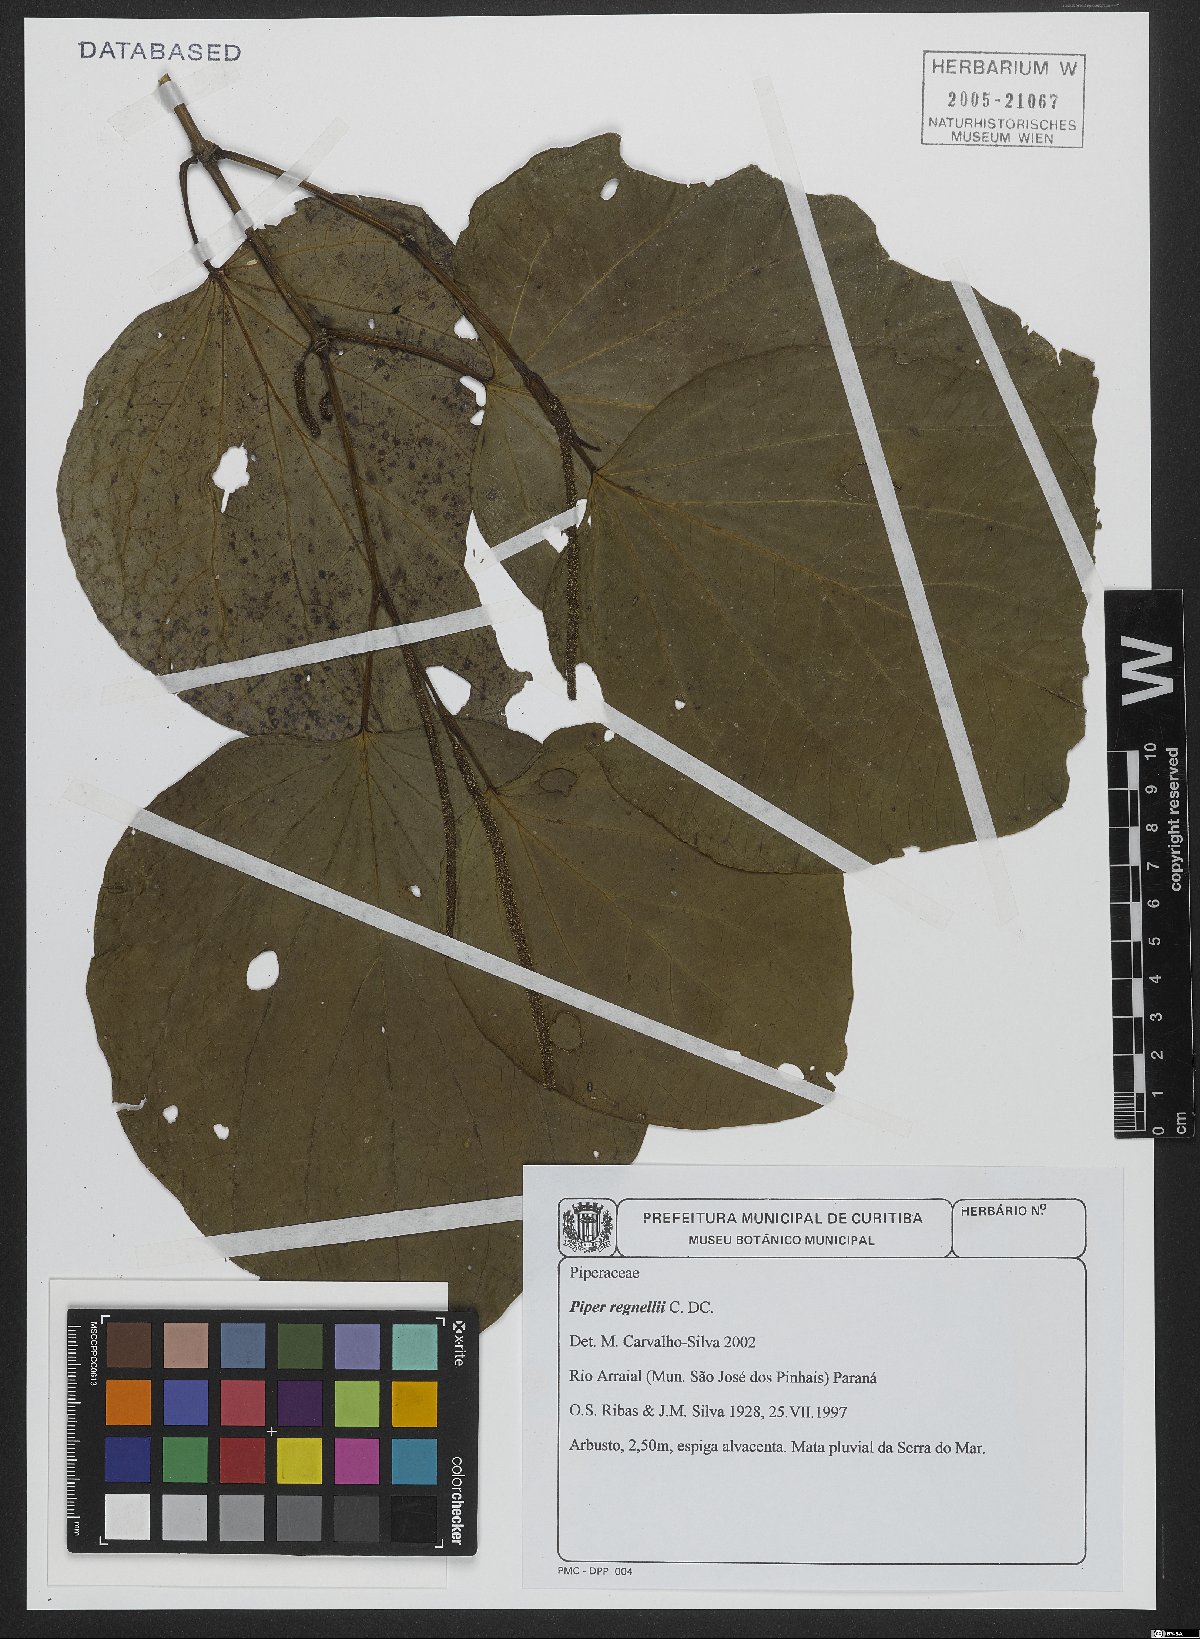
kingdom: Plantae
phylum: Tracheophyta
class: Magnoliopsida
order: Piperales
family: Piperaceae
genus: Piper
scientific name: Piper regnellii
